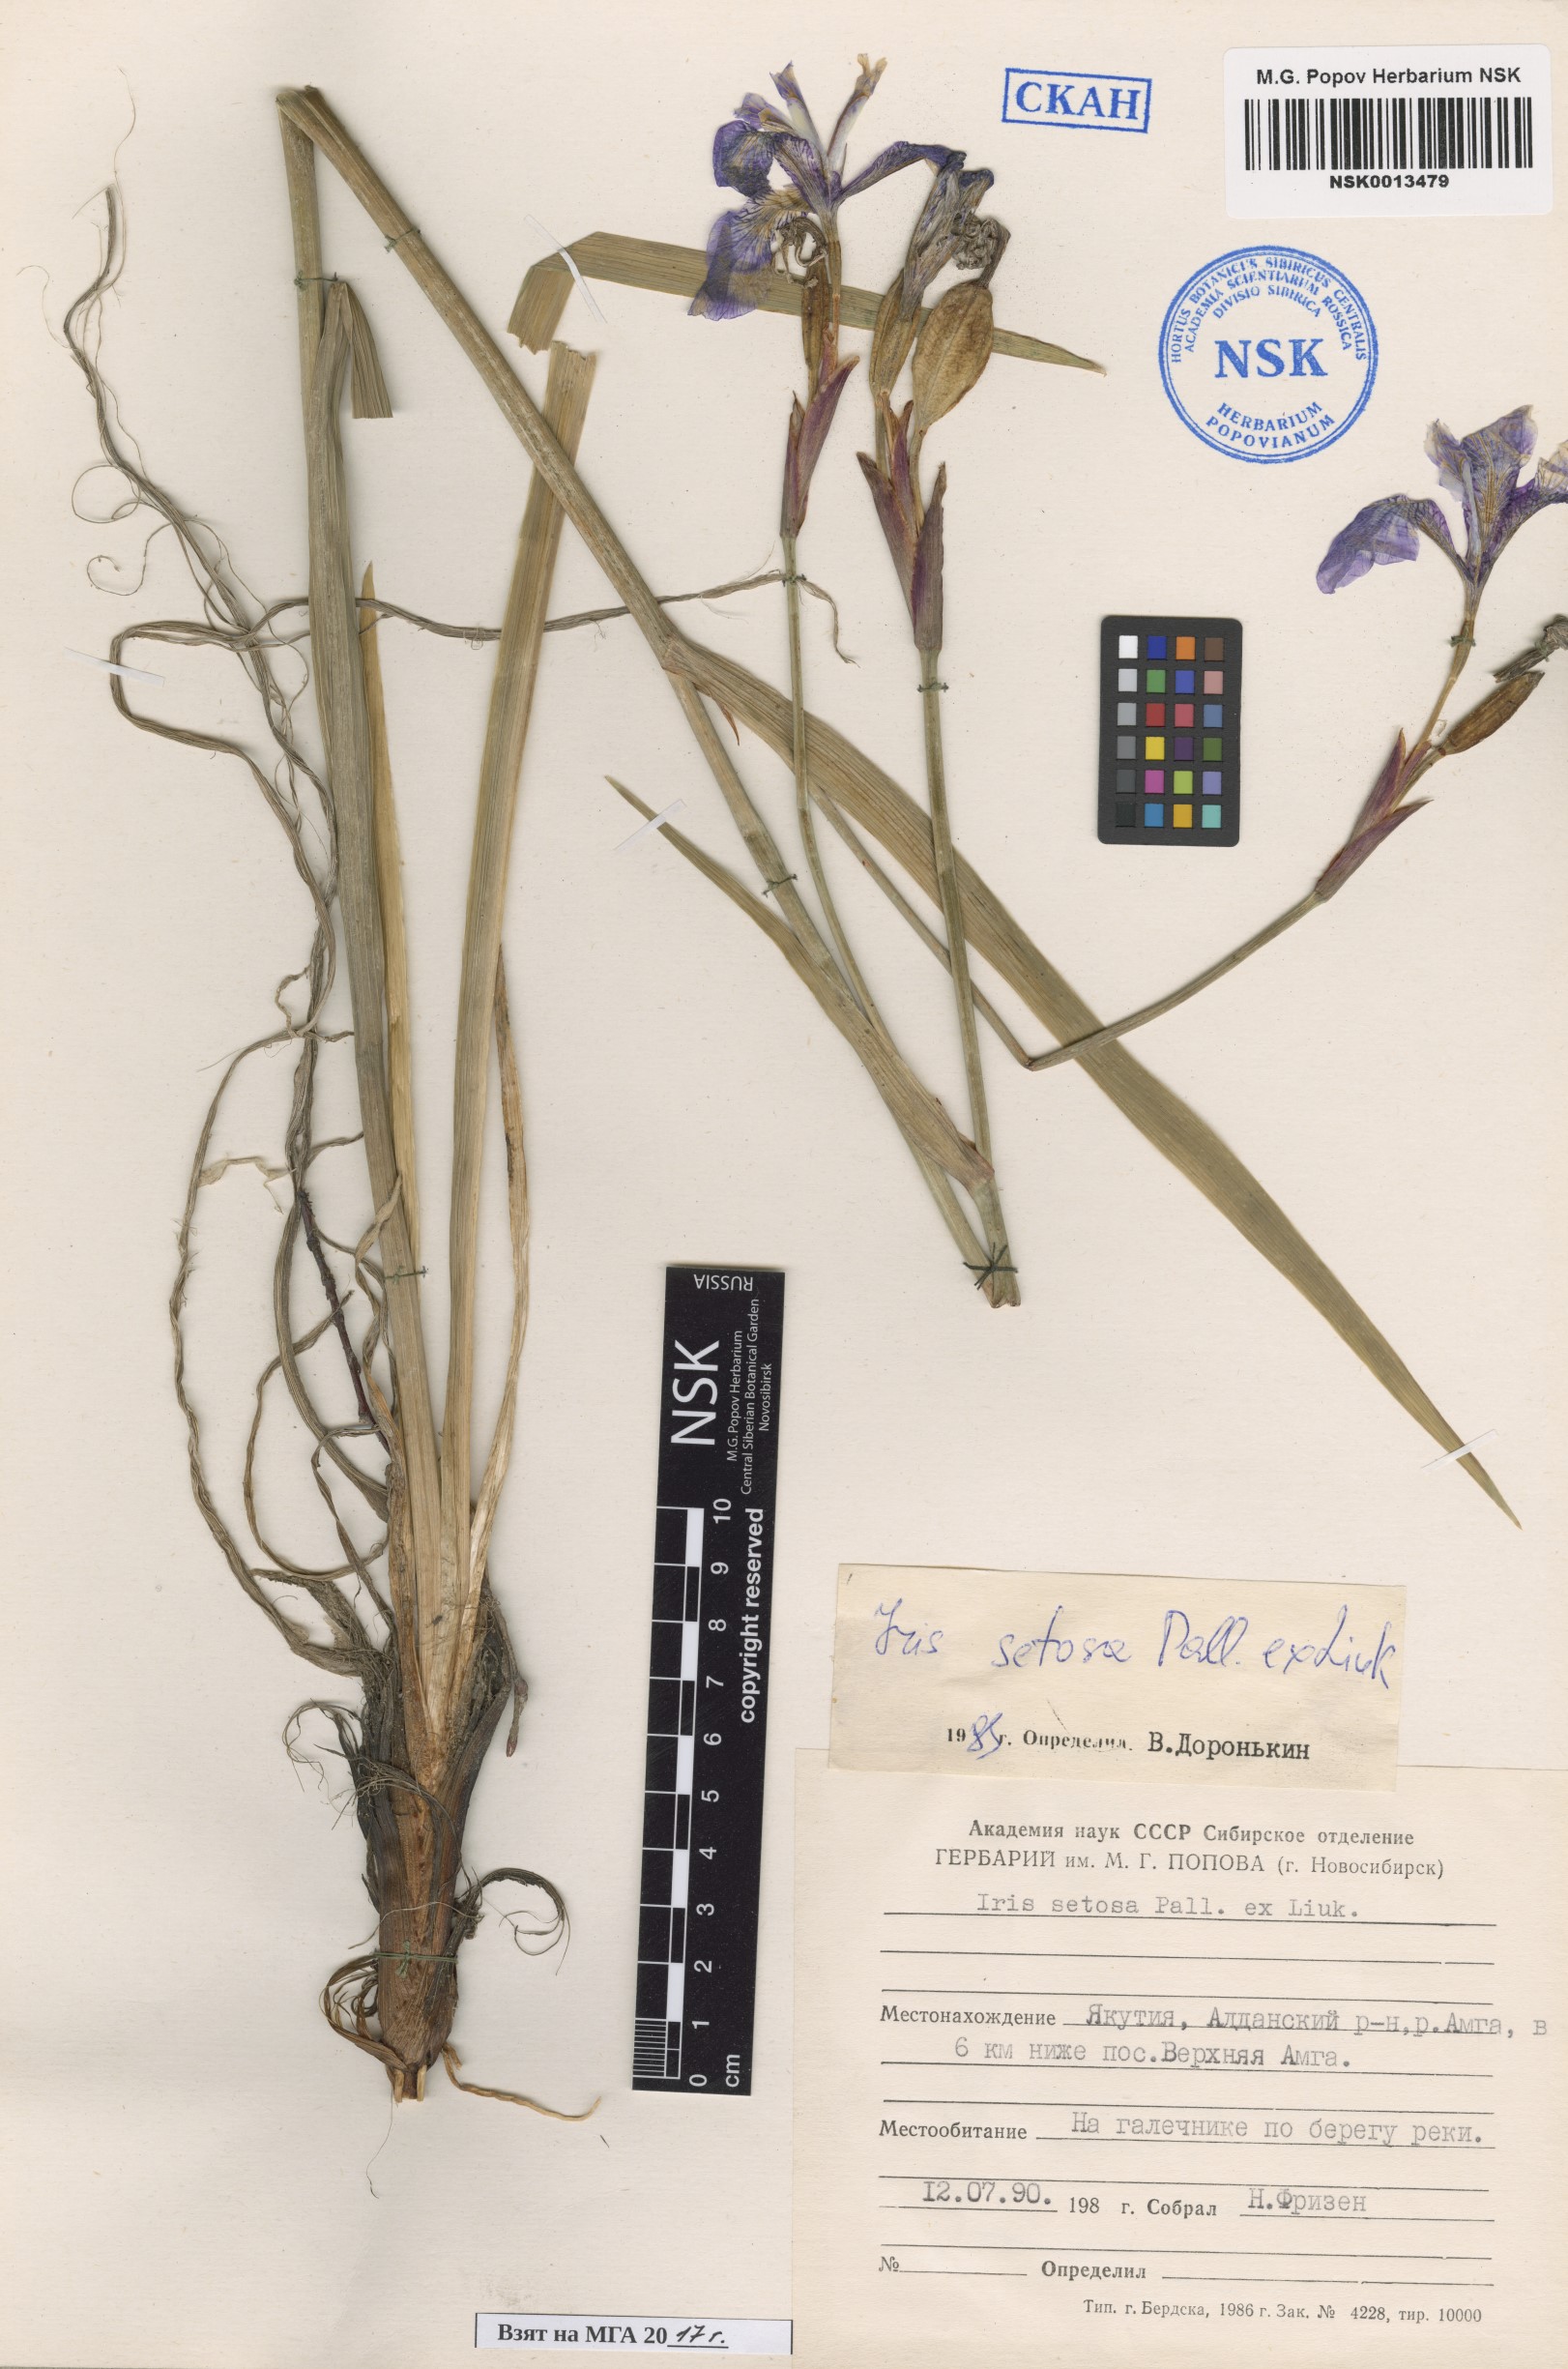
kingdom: Plantae
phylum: Tracheophyta
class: Liliopsida
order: Asparagales
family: Iridaceae
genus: Iris
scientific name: Iris setosa
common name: Arctic blue flag
